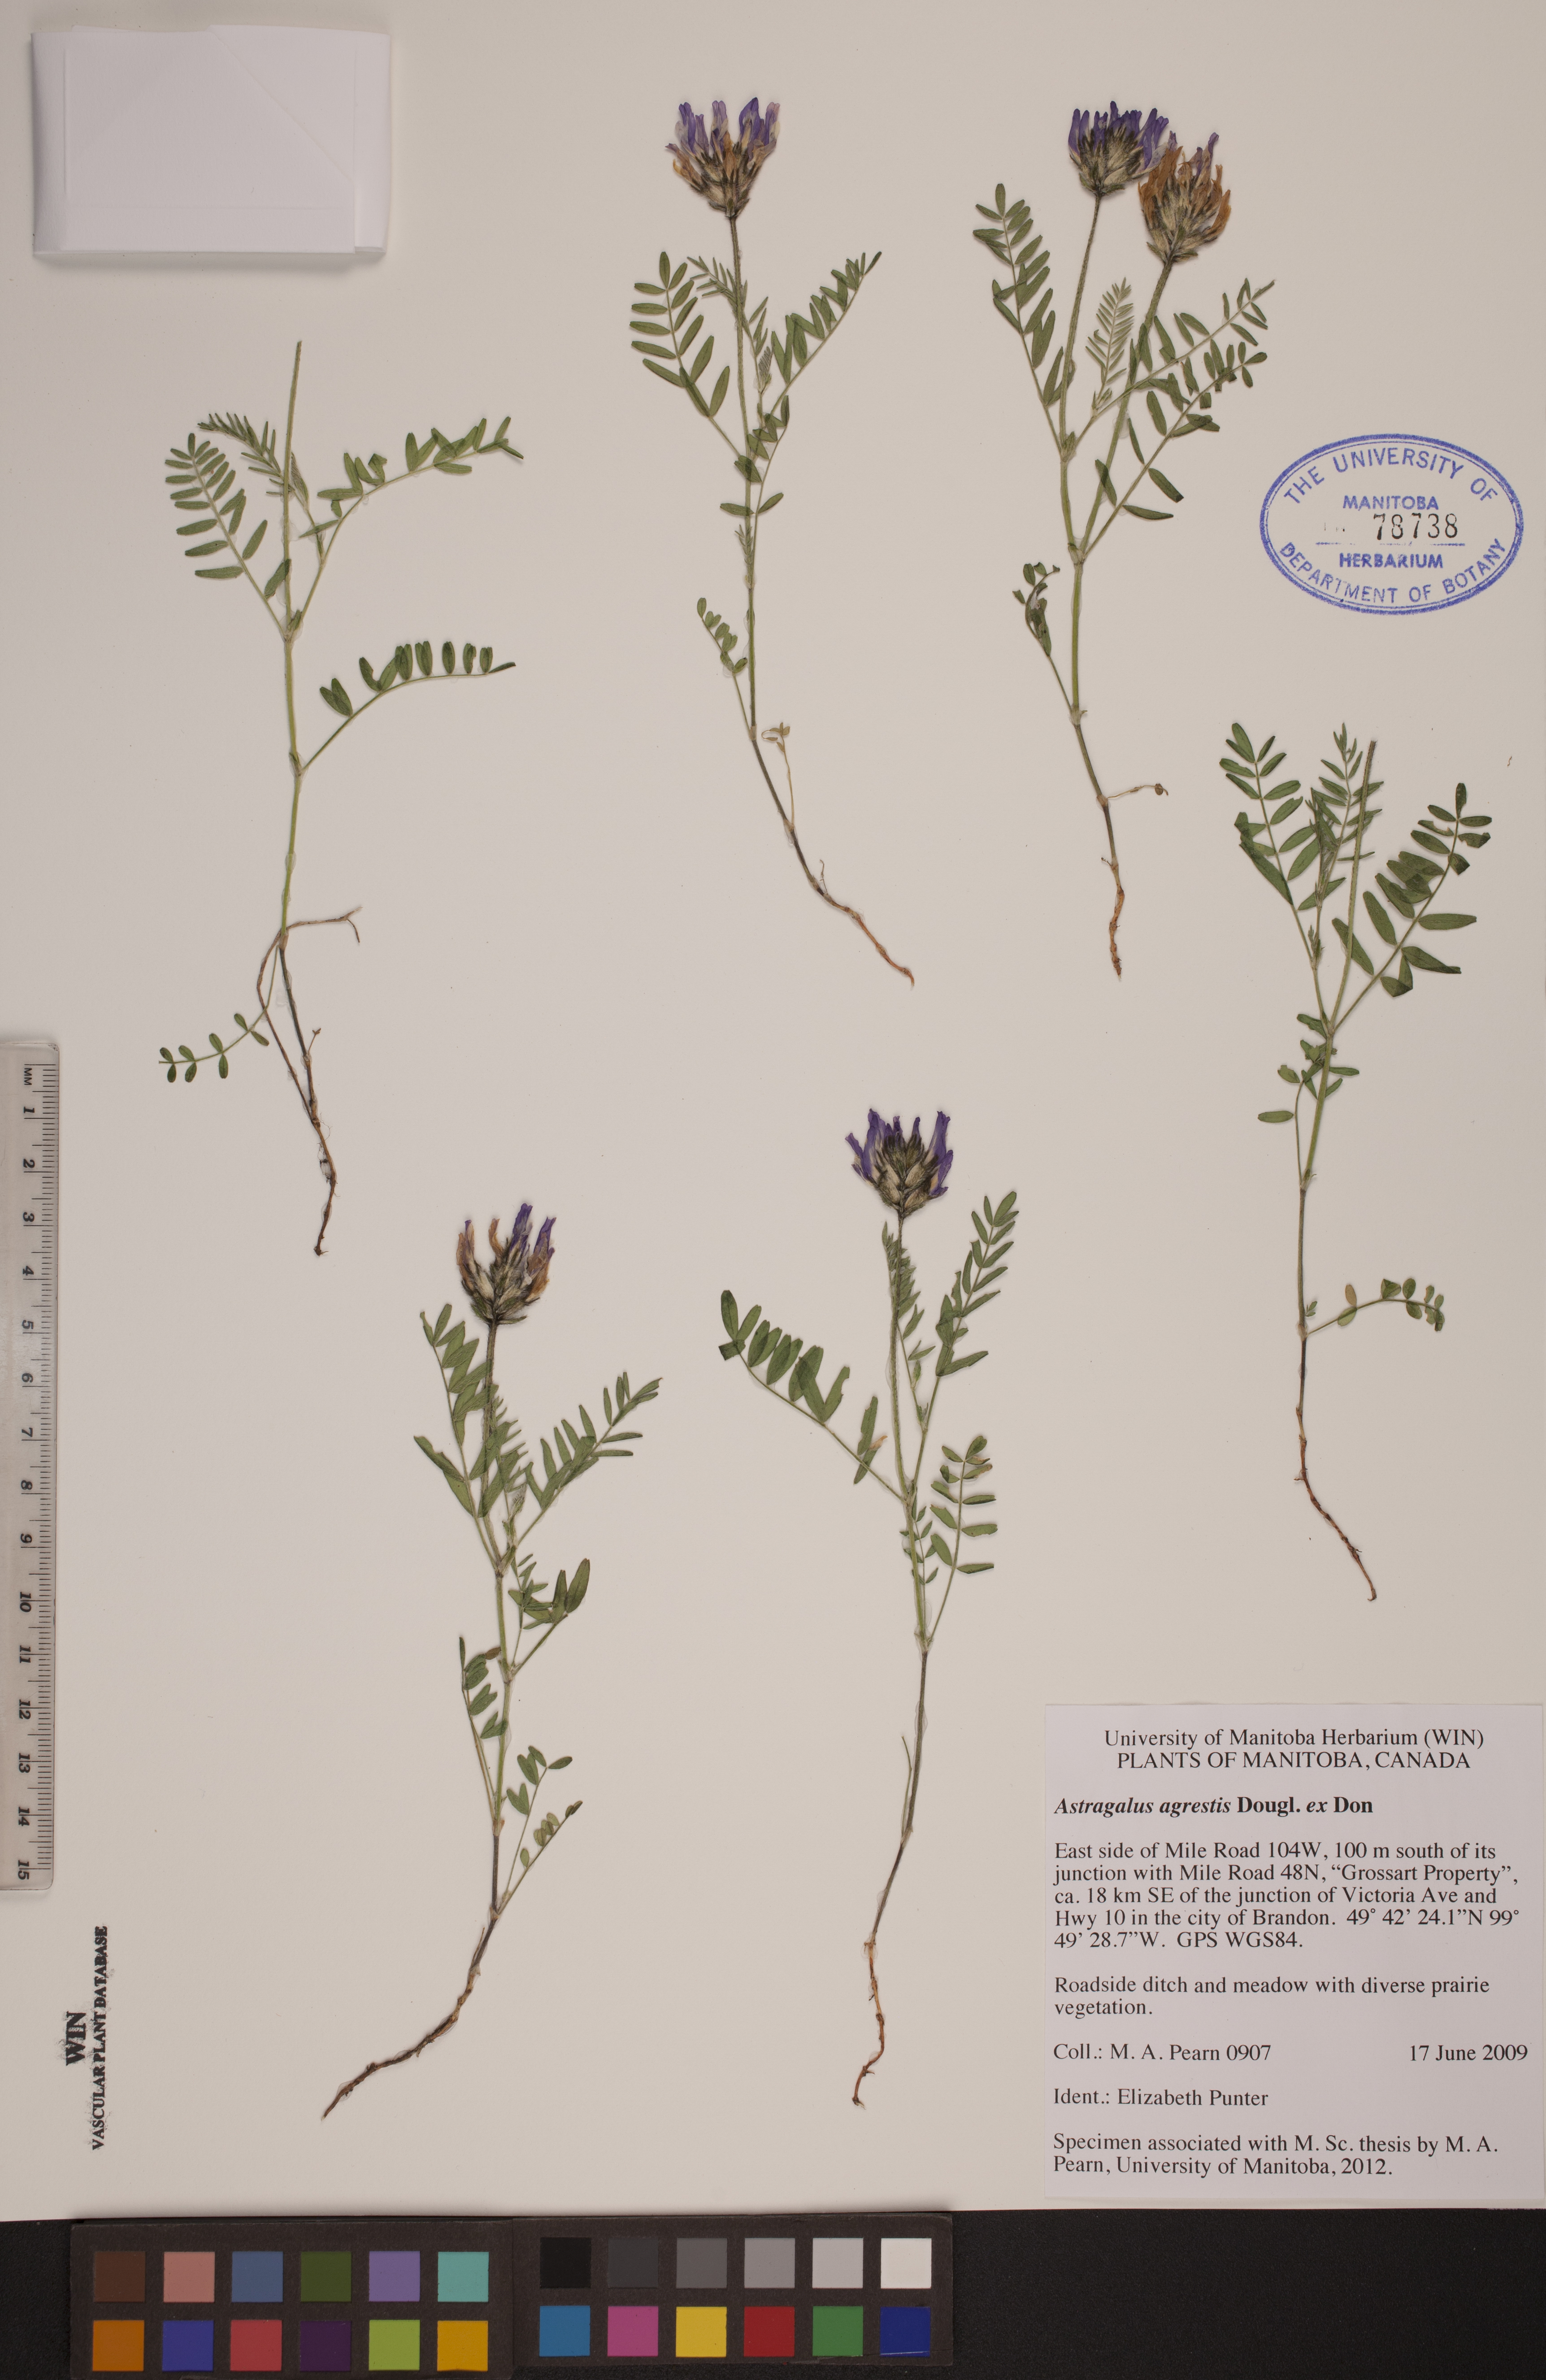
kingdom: Plantae
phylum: Tracheophyta
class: Magnoliopsida
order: Fabales
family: Fabaceae
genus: Astragalus
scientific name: Astragalus agrestis
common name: Field milk-vetch
